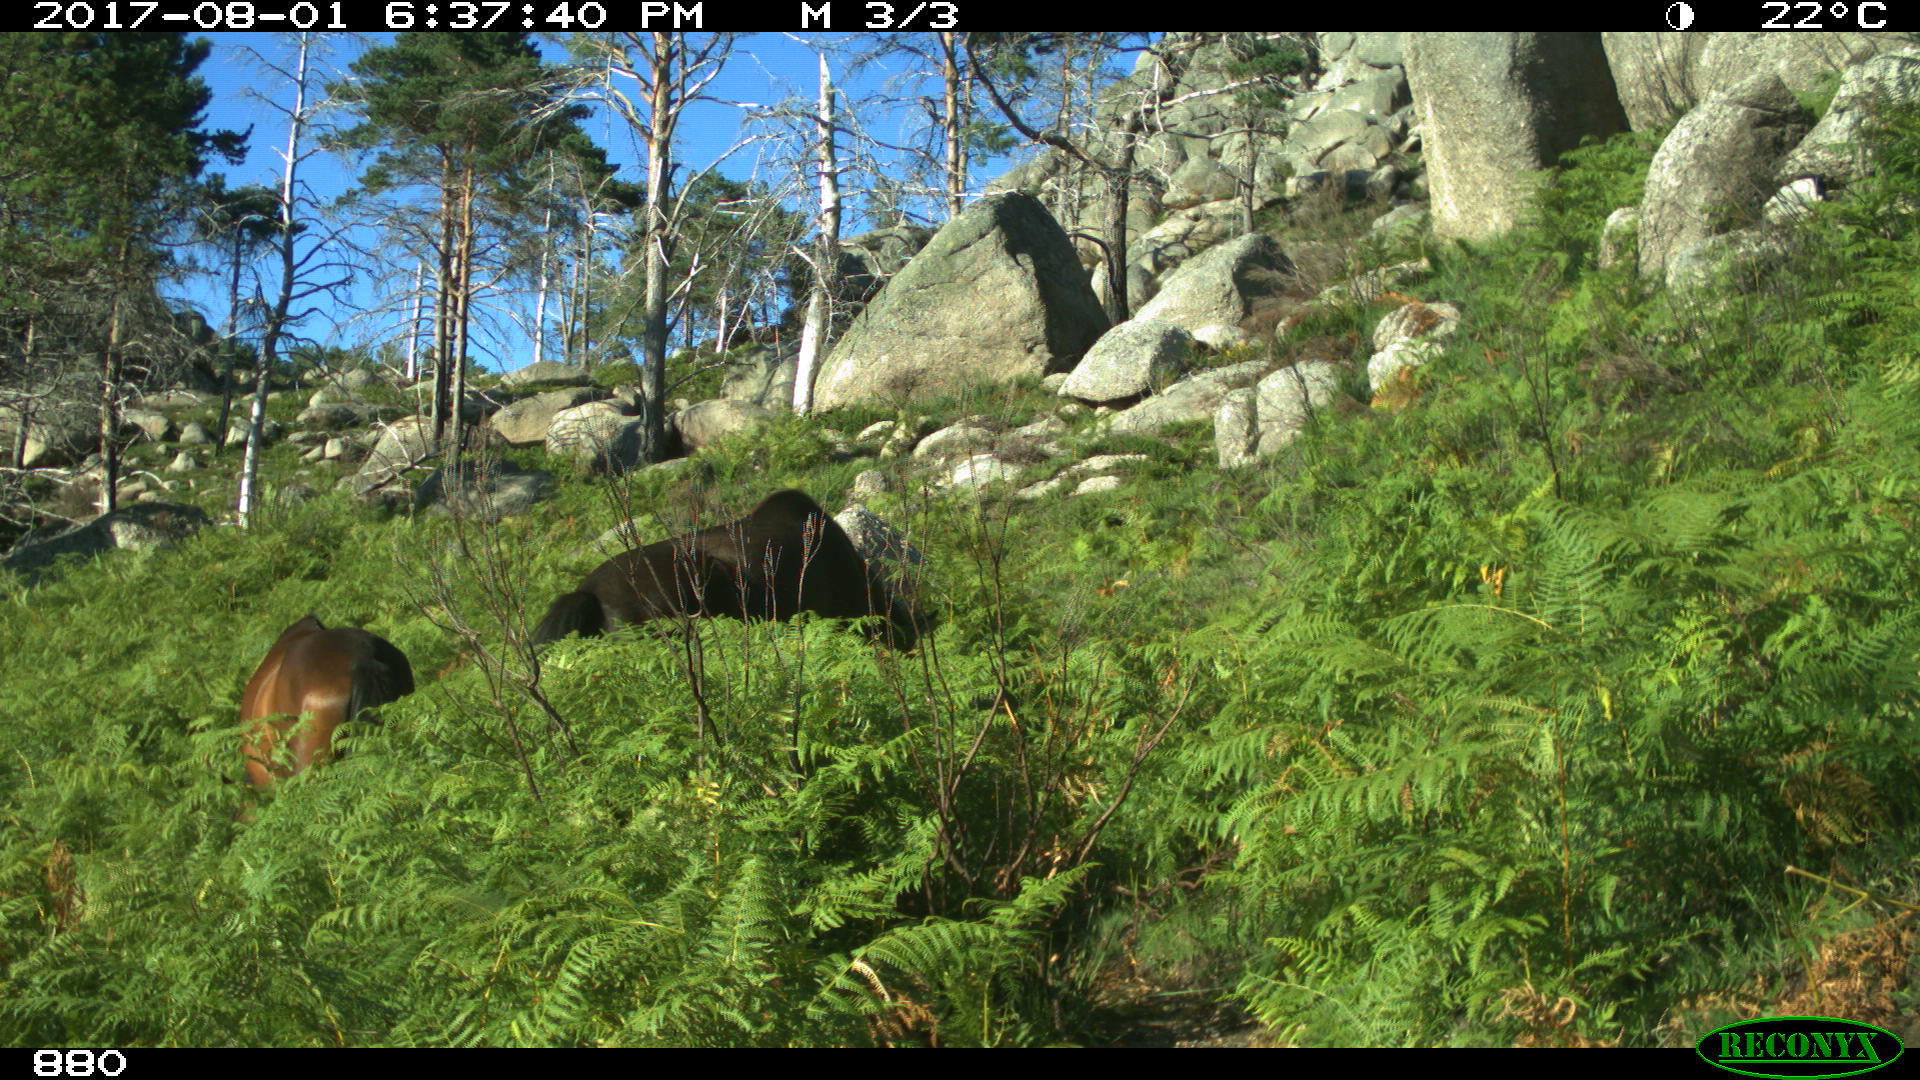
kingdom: Animalia
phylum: Chordata
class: Mammalia
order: Perissodactyla
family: Equidae
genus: Equus
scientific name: Equus caballus
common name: Horse
